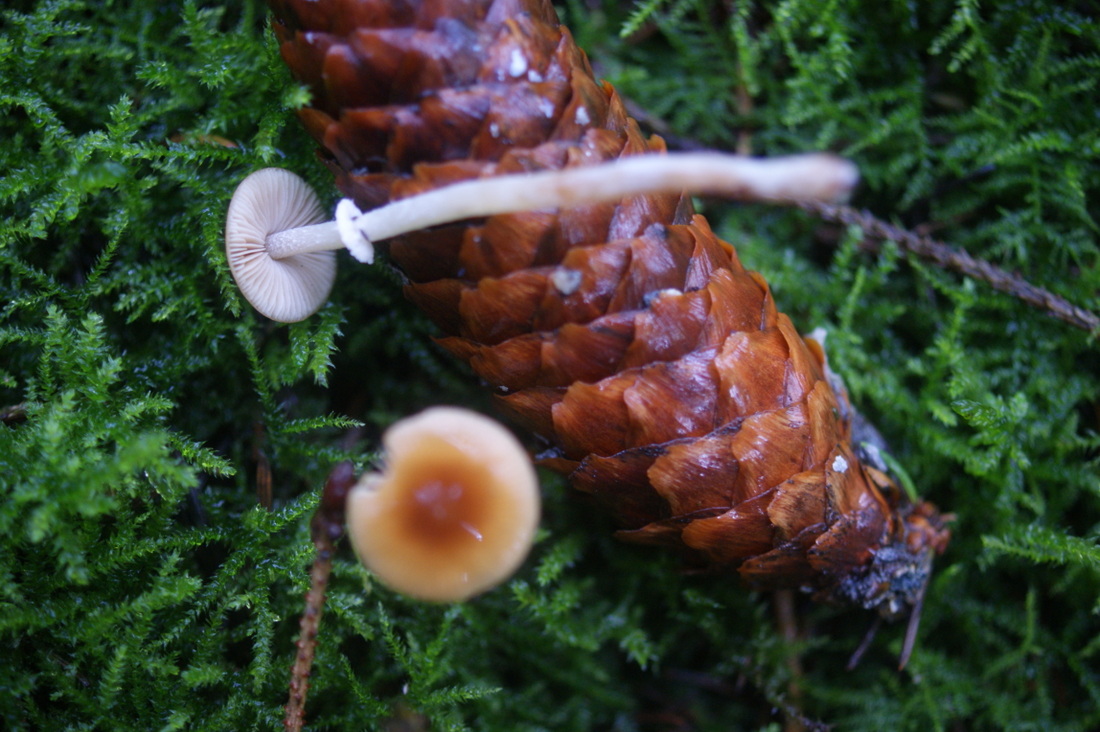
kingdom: Fungi
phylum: Basidiomycota
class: Agaricomycetes
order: Agaricales
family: Bolbitiaceae
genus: Conocybe
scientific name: Conocybe arrhenii
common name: ring-dansehat
